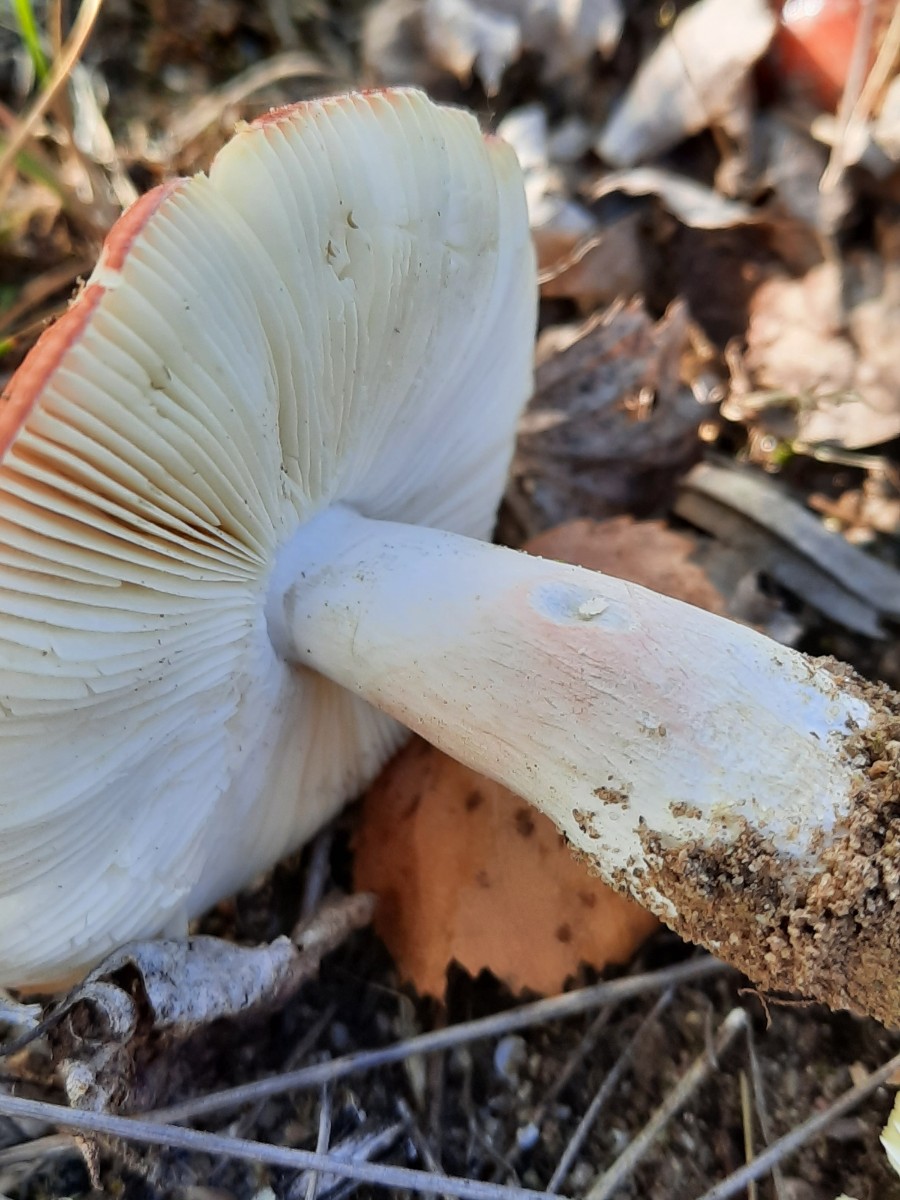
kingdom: Fungi
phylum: Basidiomycota
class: Agaricomycetes
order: Russulales
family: Russulaceae
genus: Russula
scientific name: Russula depallens
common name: falmende skørhat
